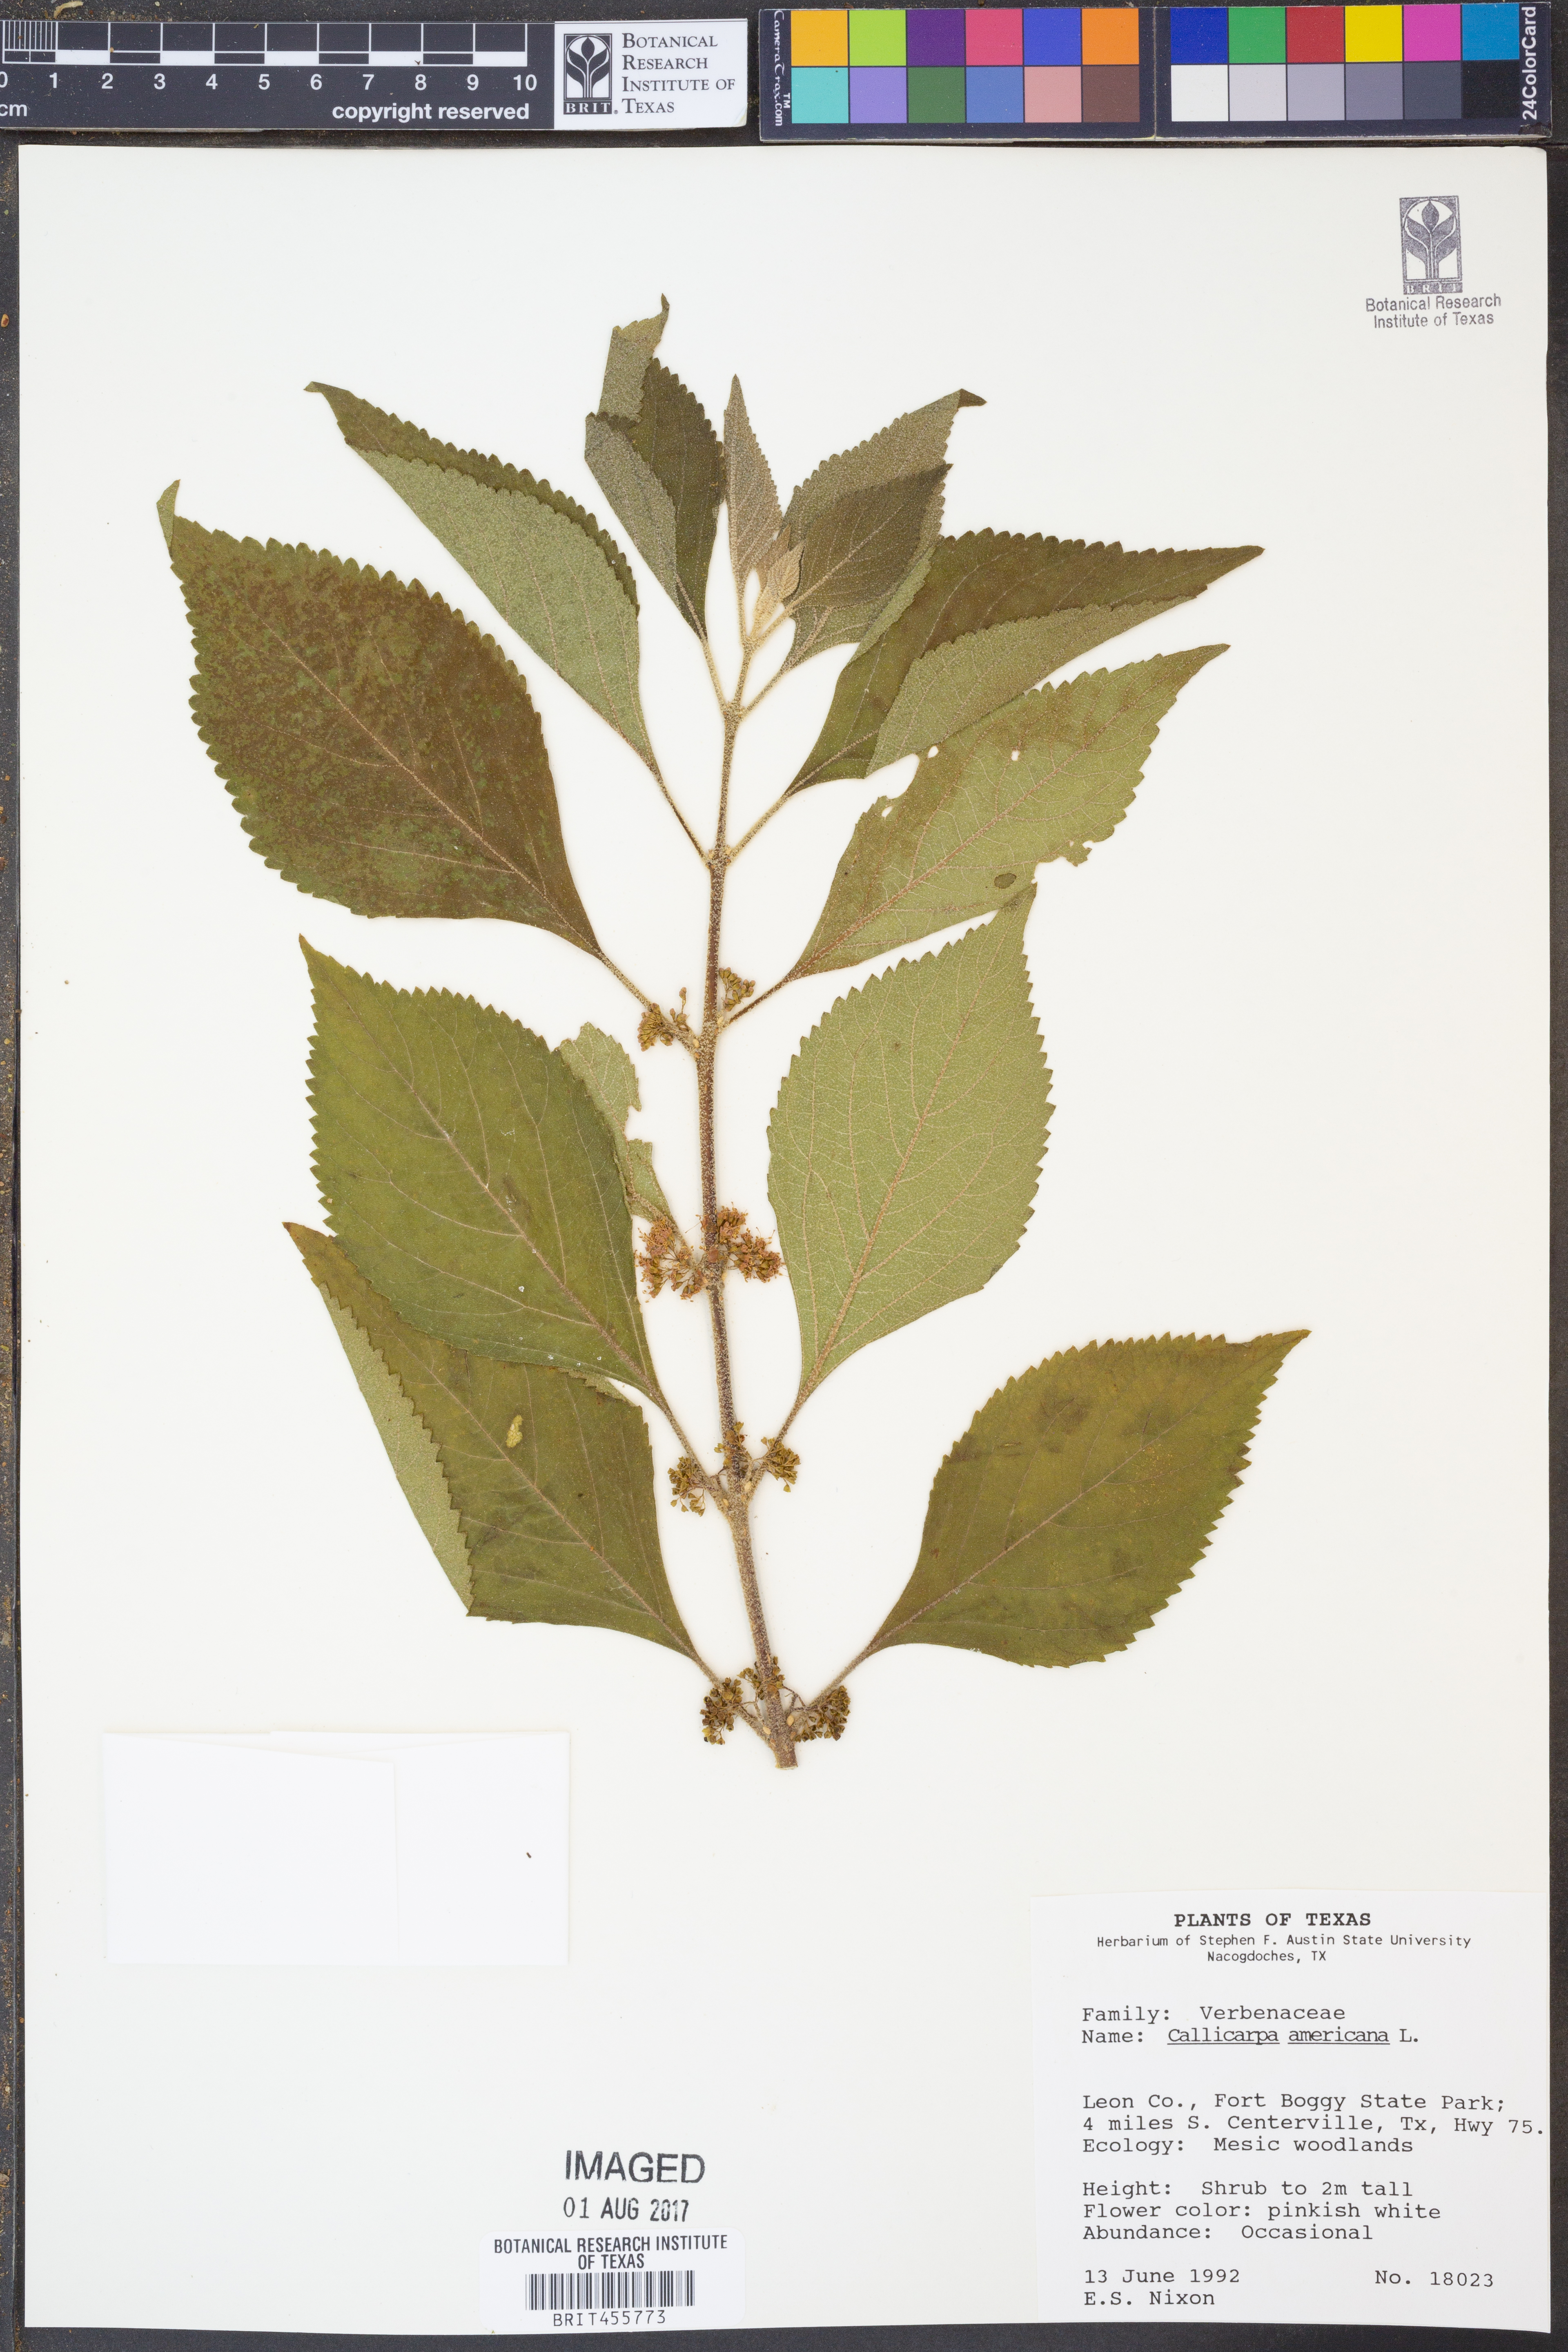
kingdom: Plantae
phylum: Tracheophyta
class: Magnoliopsida
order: Lamiales
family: Lamiaceae
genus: Callicarpa
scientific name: Callicarpa americana
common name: American beautyberry
